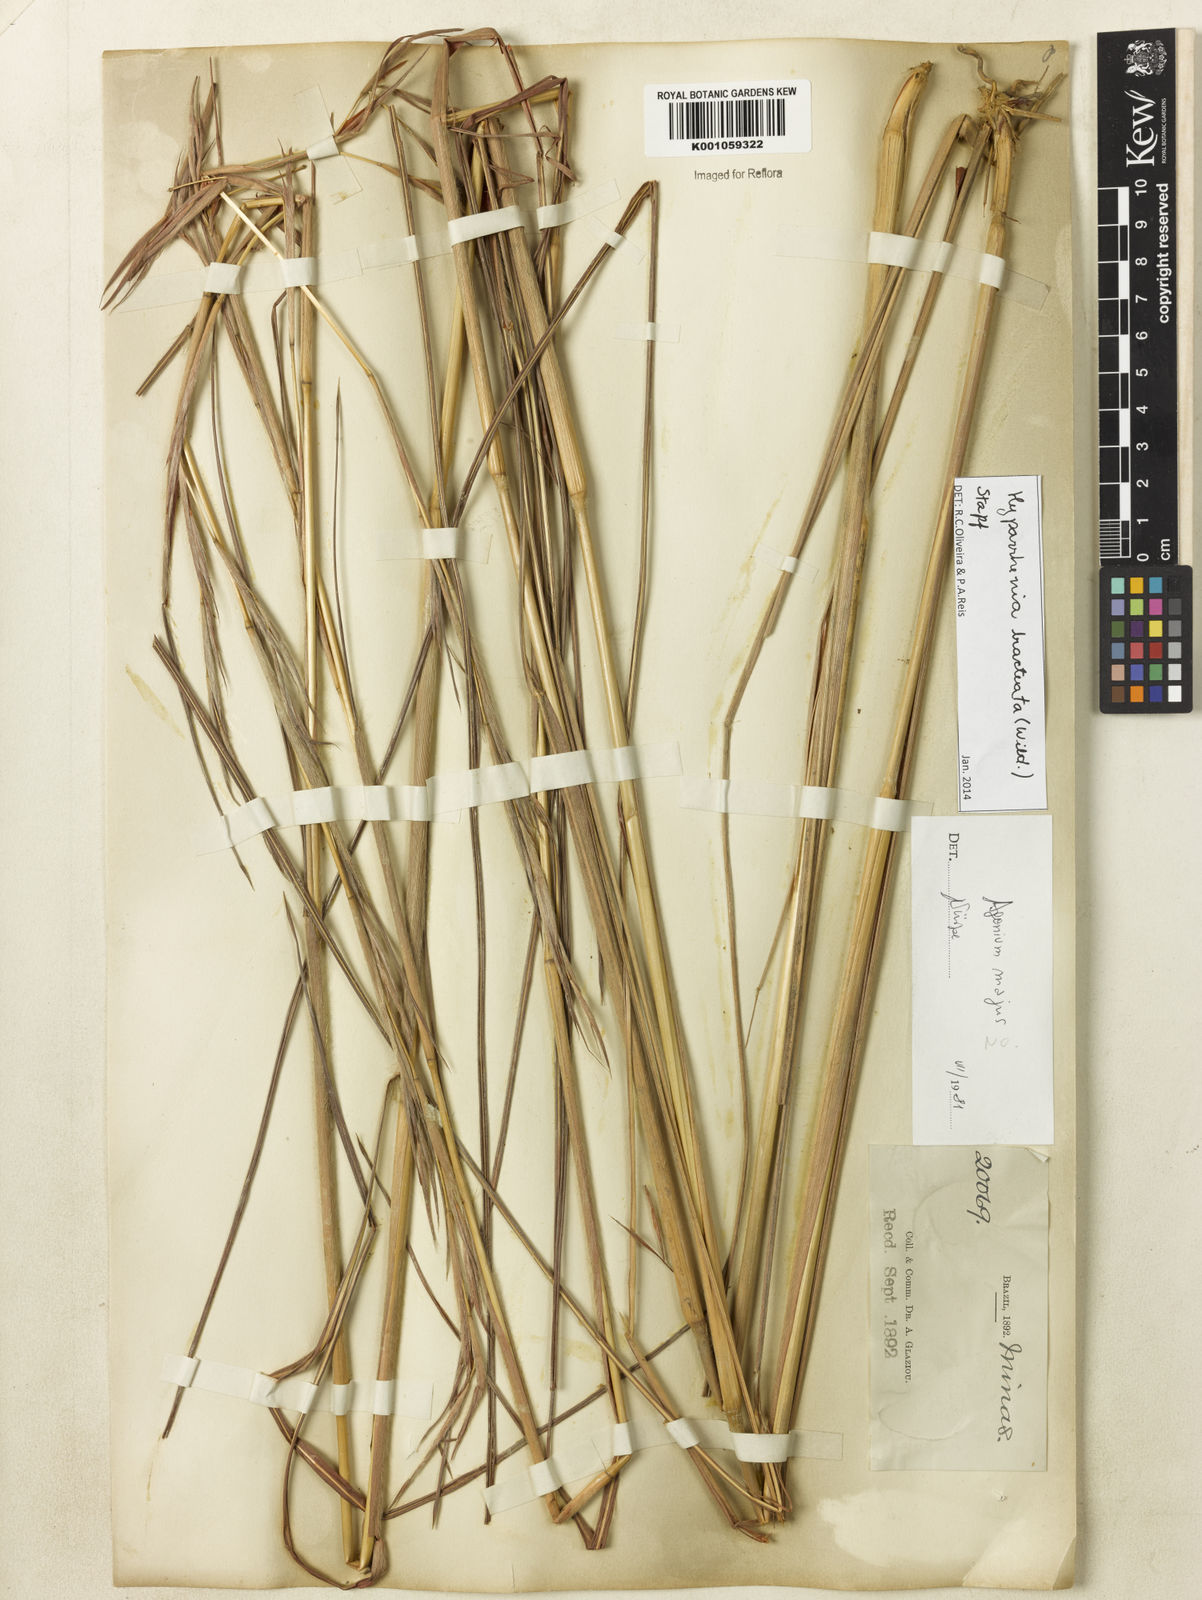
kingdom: Plantae
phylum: Tracheophyta
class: Liliopsida
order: Poales
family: Poaceae
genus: Hyparrhenia
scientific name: Hyparrhenia bracteata
